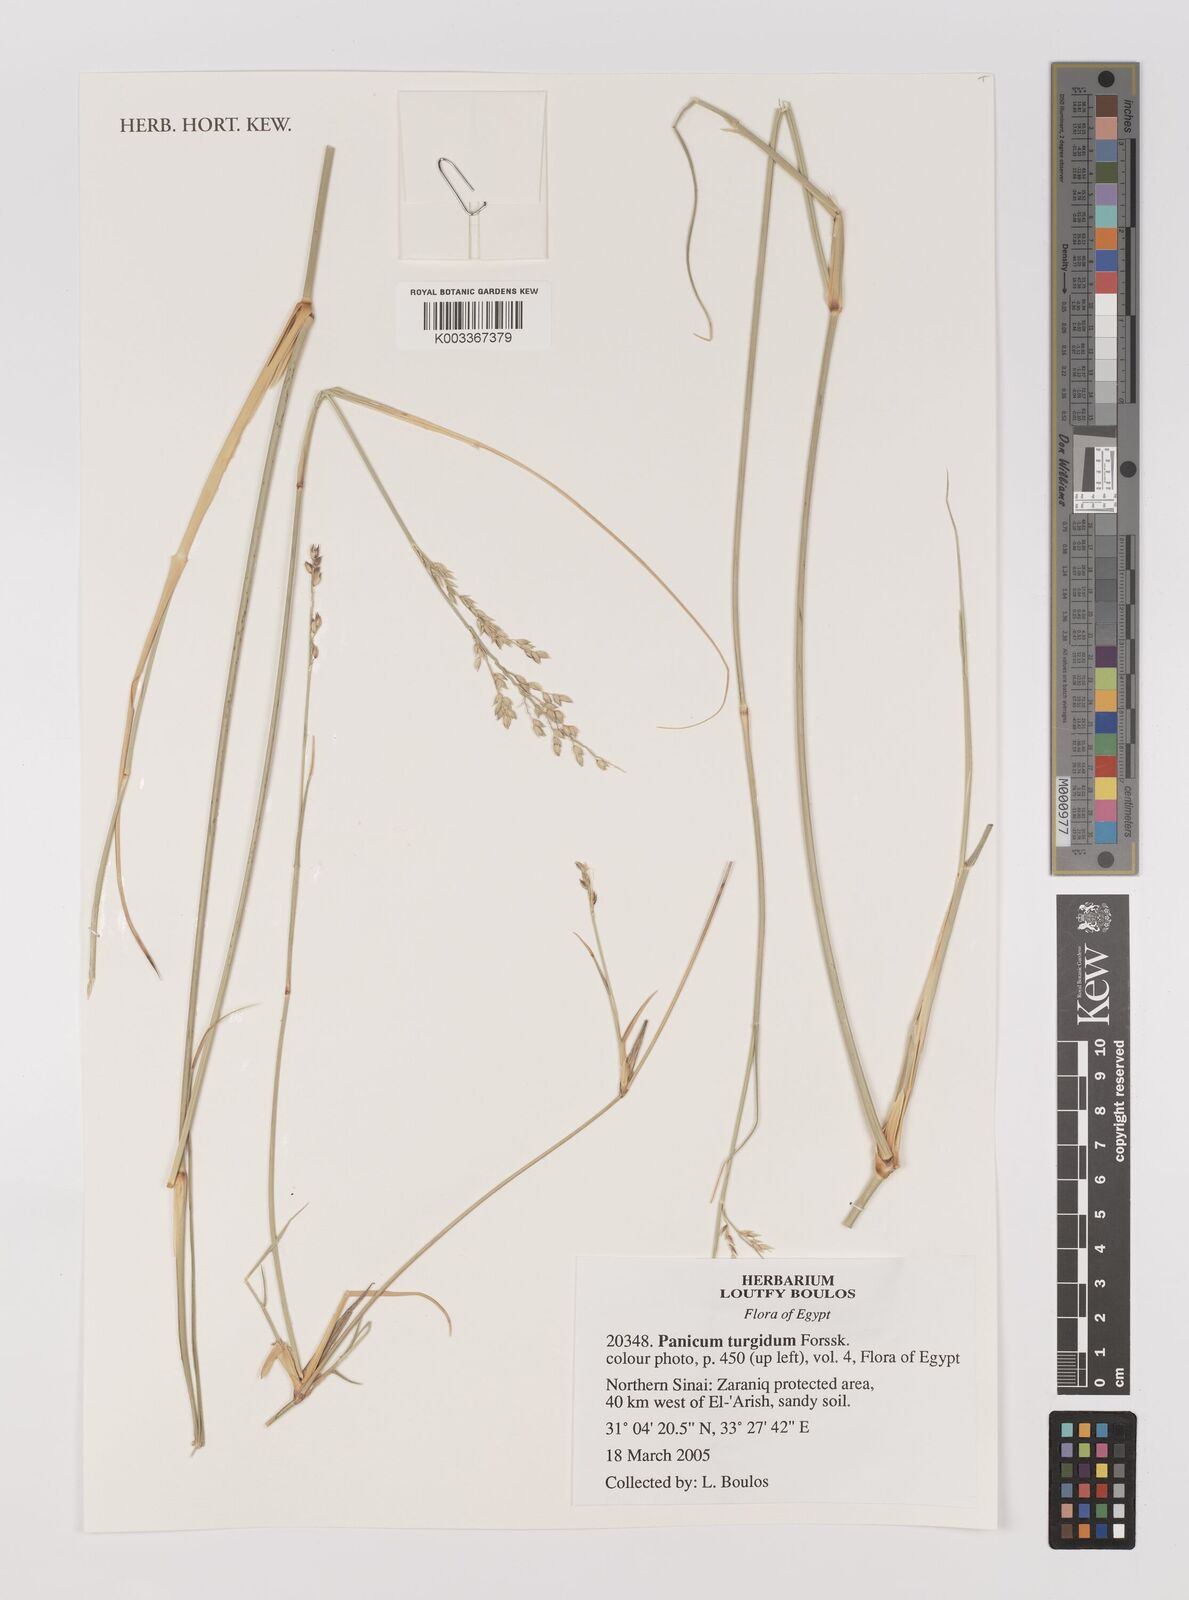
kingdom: Plantae
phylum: Tracheophyta
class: Liliopsida
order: Poales
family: Poaceae
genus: Panicum
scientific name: Panicum turgidum
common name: Desert grass
